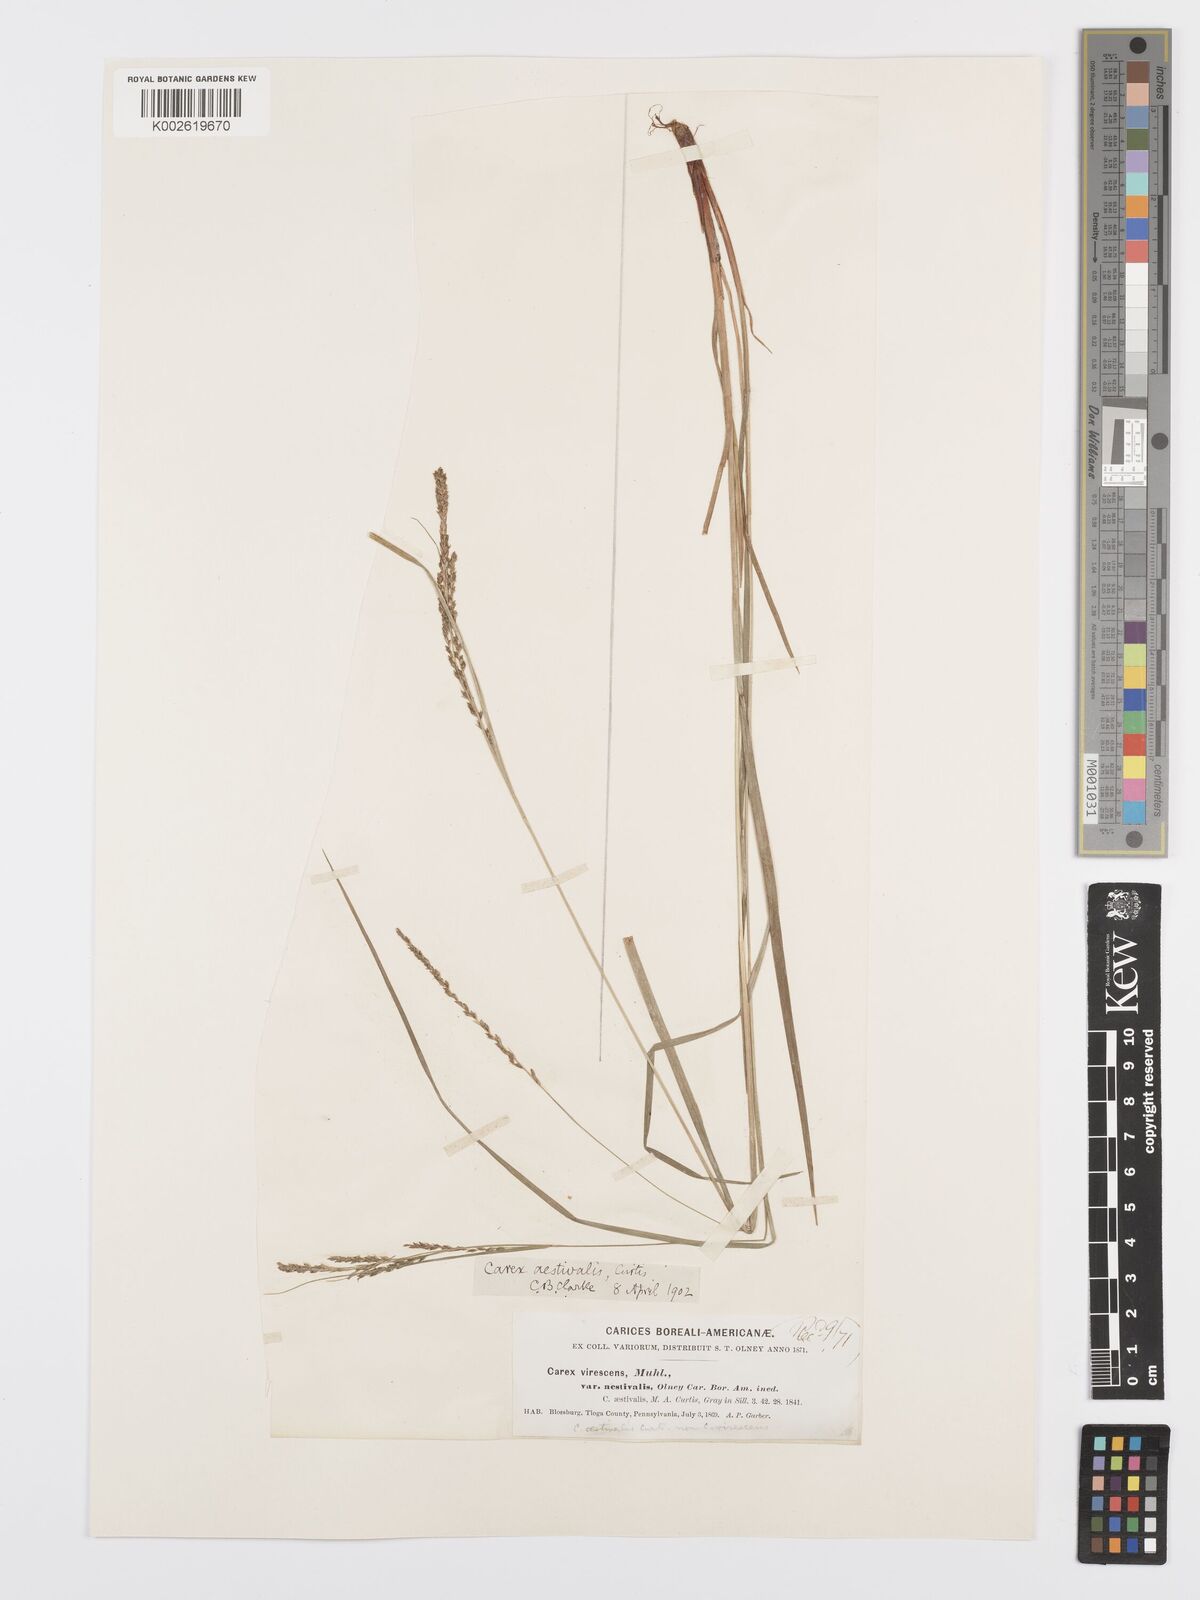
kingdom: Plantae
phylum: Tracheophyta
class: Liliopsida
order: Poales
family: Cyperaceae
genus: Carex
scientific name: Carex aestivalis
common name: Summer sedge
